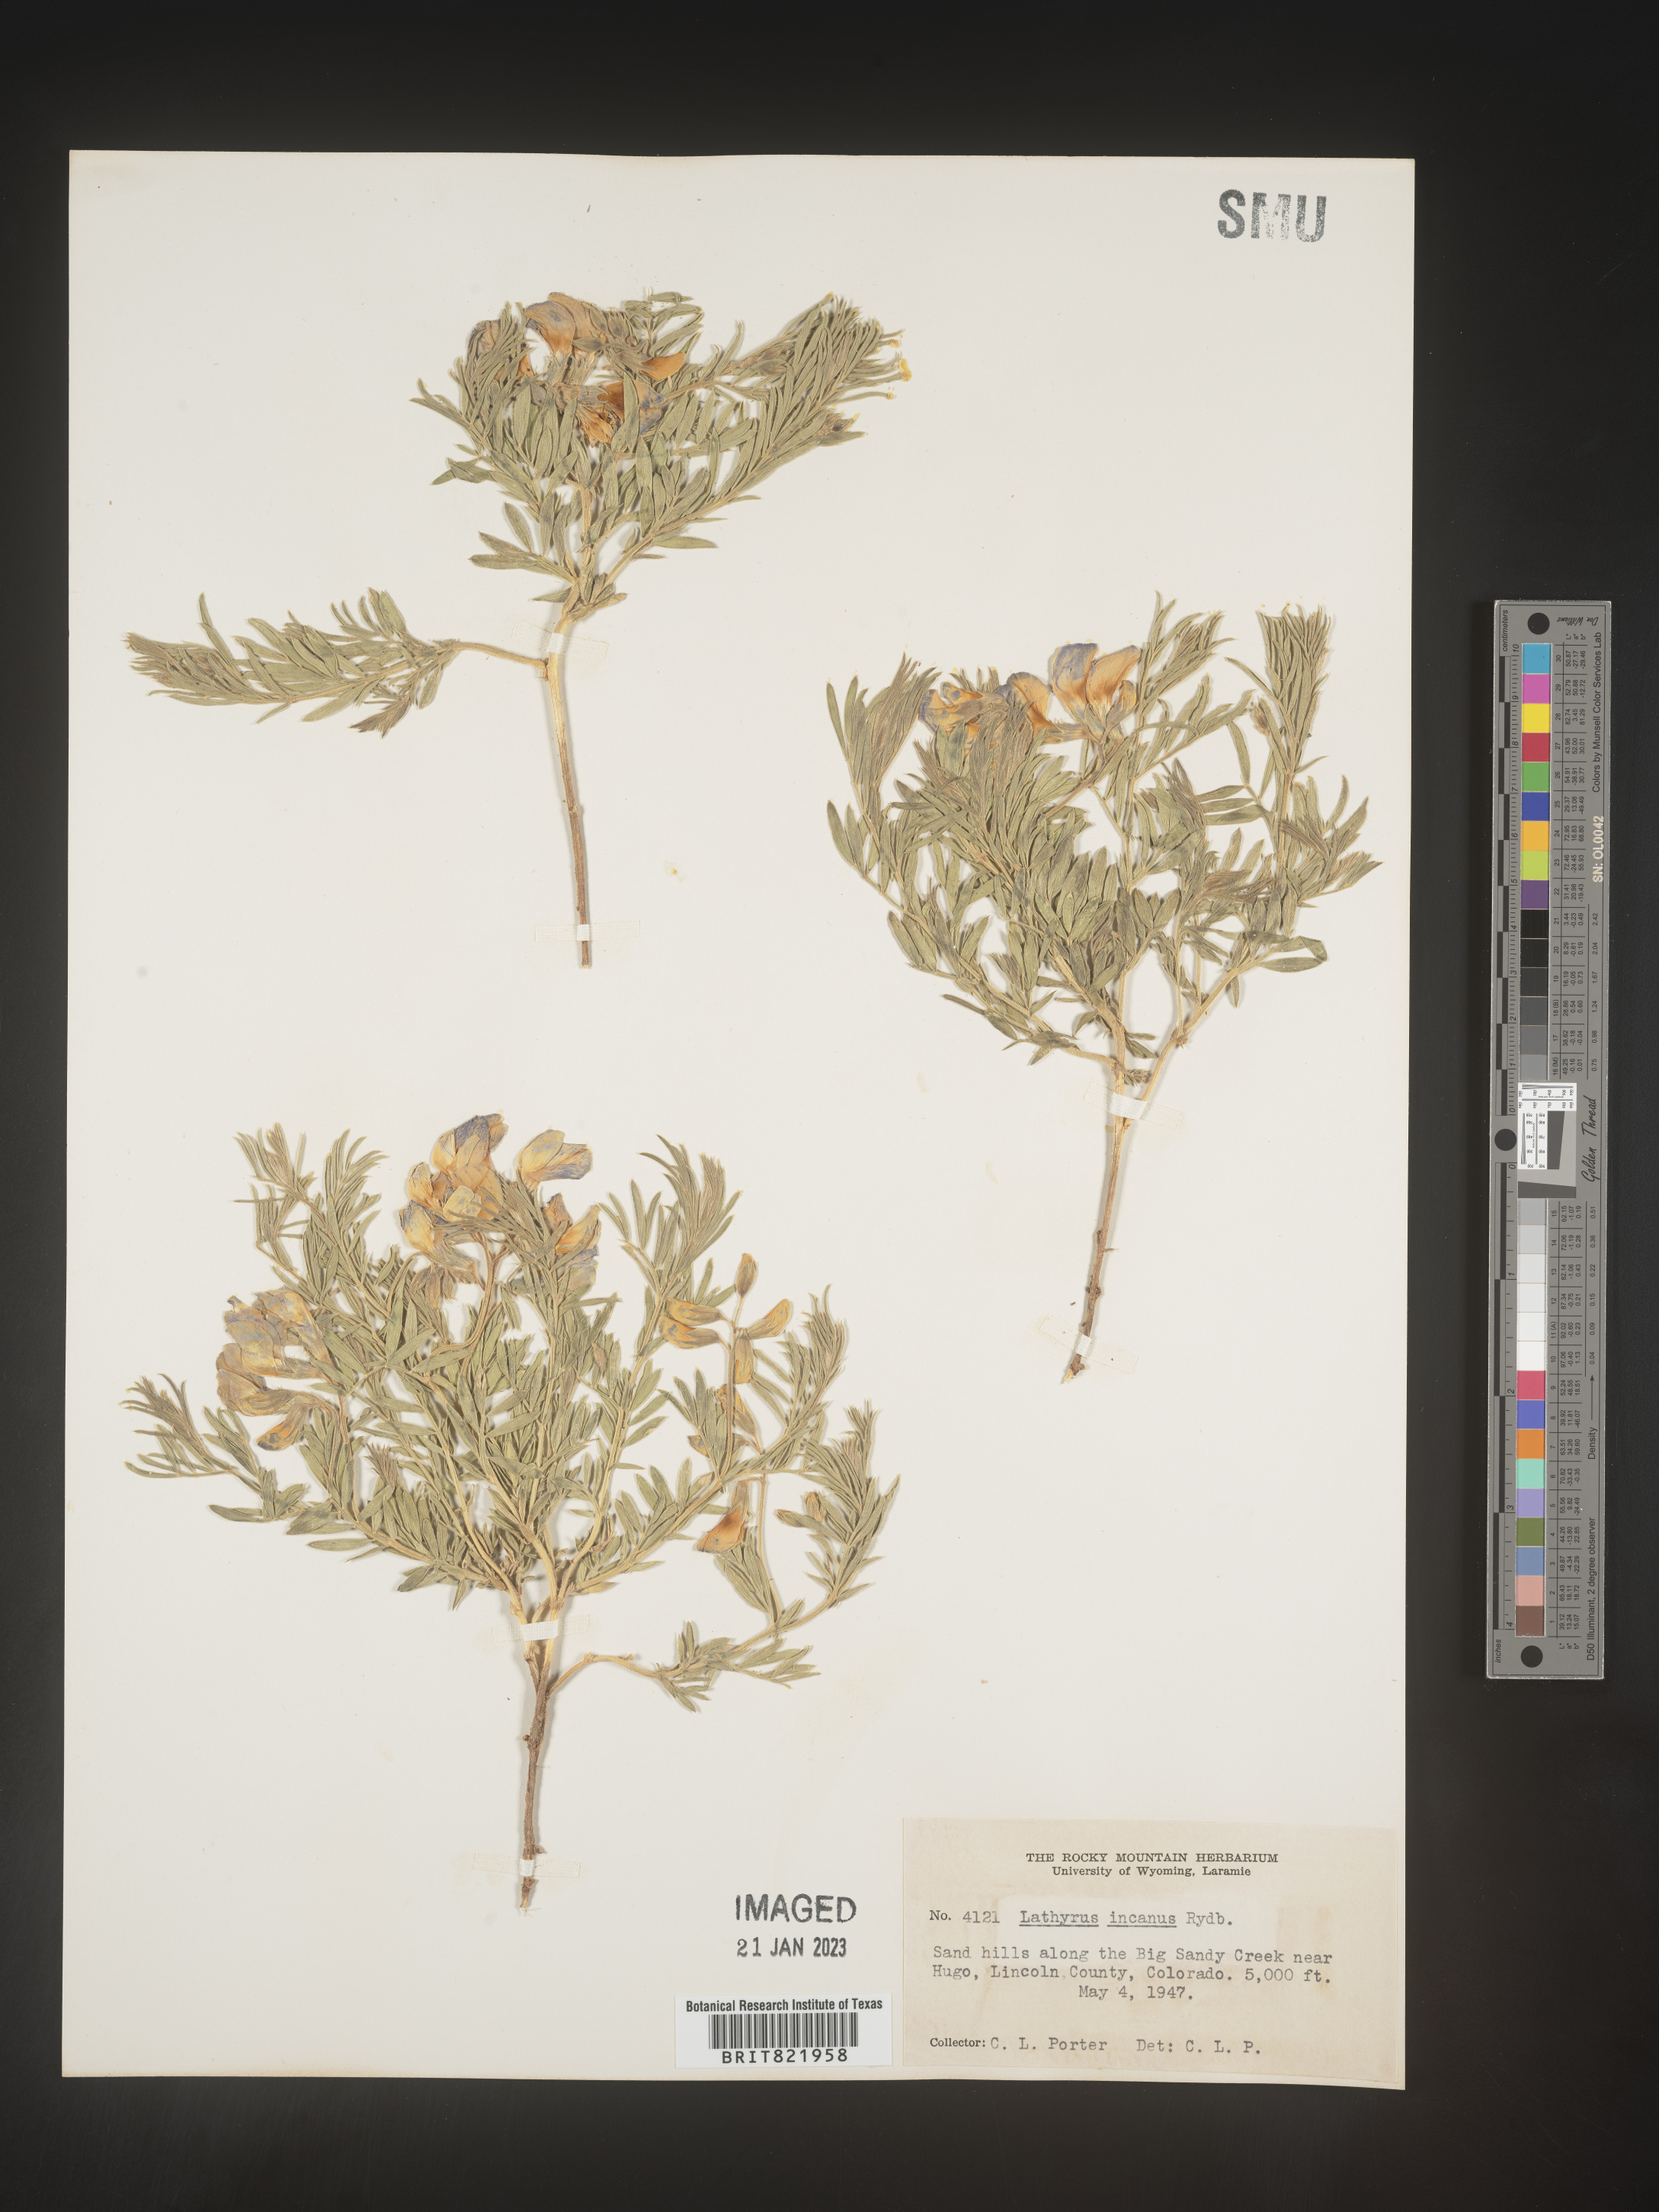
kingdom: Plantae
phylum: Tracheophyta
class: Magnoliopsida
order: Fabales
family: Fabaceae
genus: Lathyrus
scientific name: Lathyrus hirsutus
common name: Hairy vetchling
